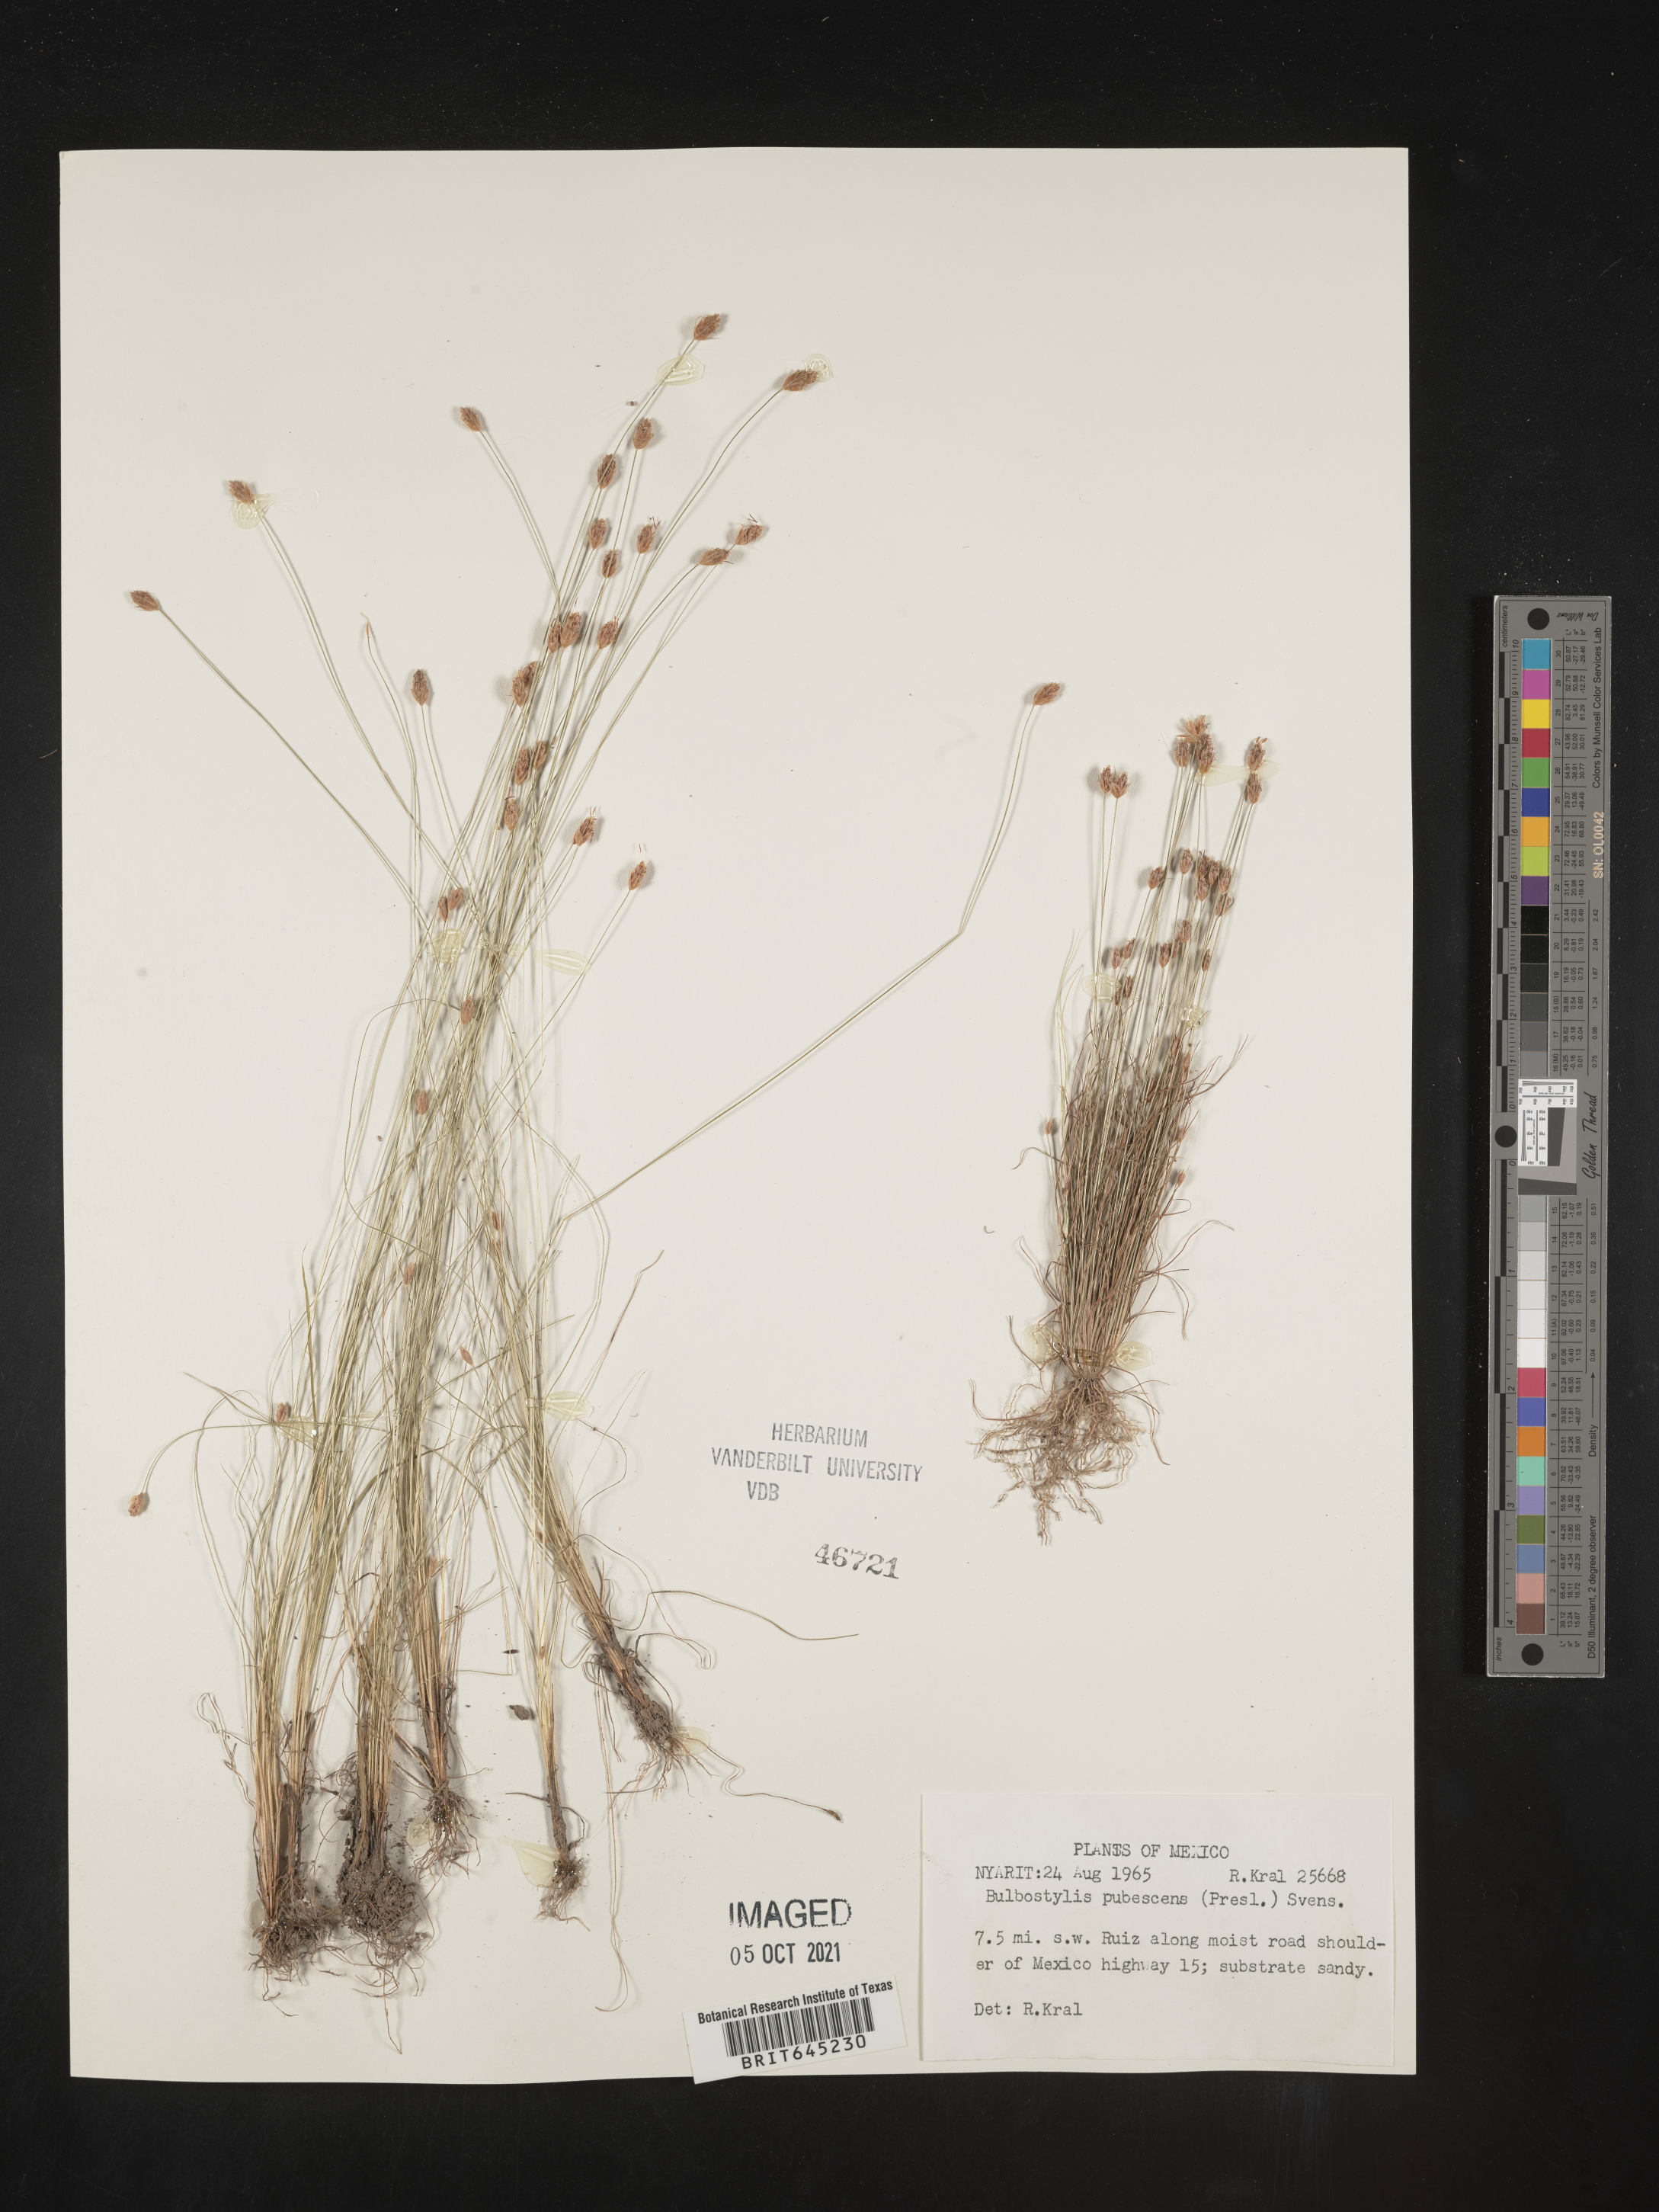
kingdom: Plantae
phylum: Tracheophyta
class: Liliopsida
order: Poales
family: Cyperaceae
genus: Bulbostylis
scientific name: Bulbostylis pubescens
